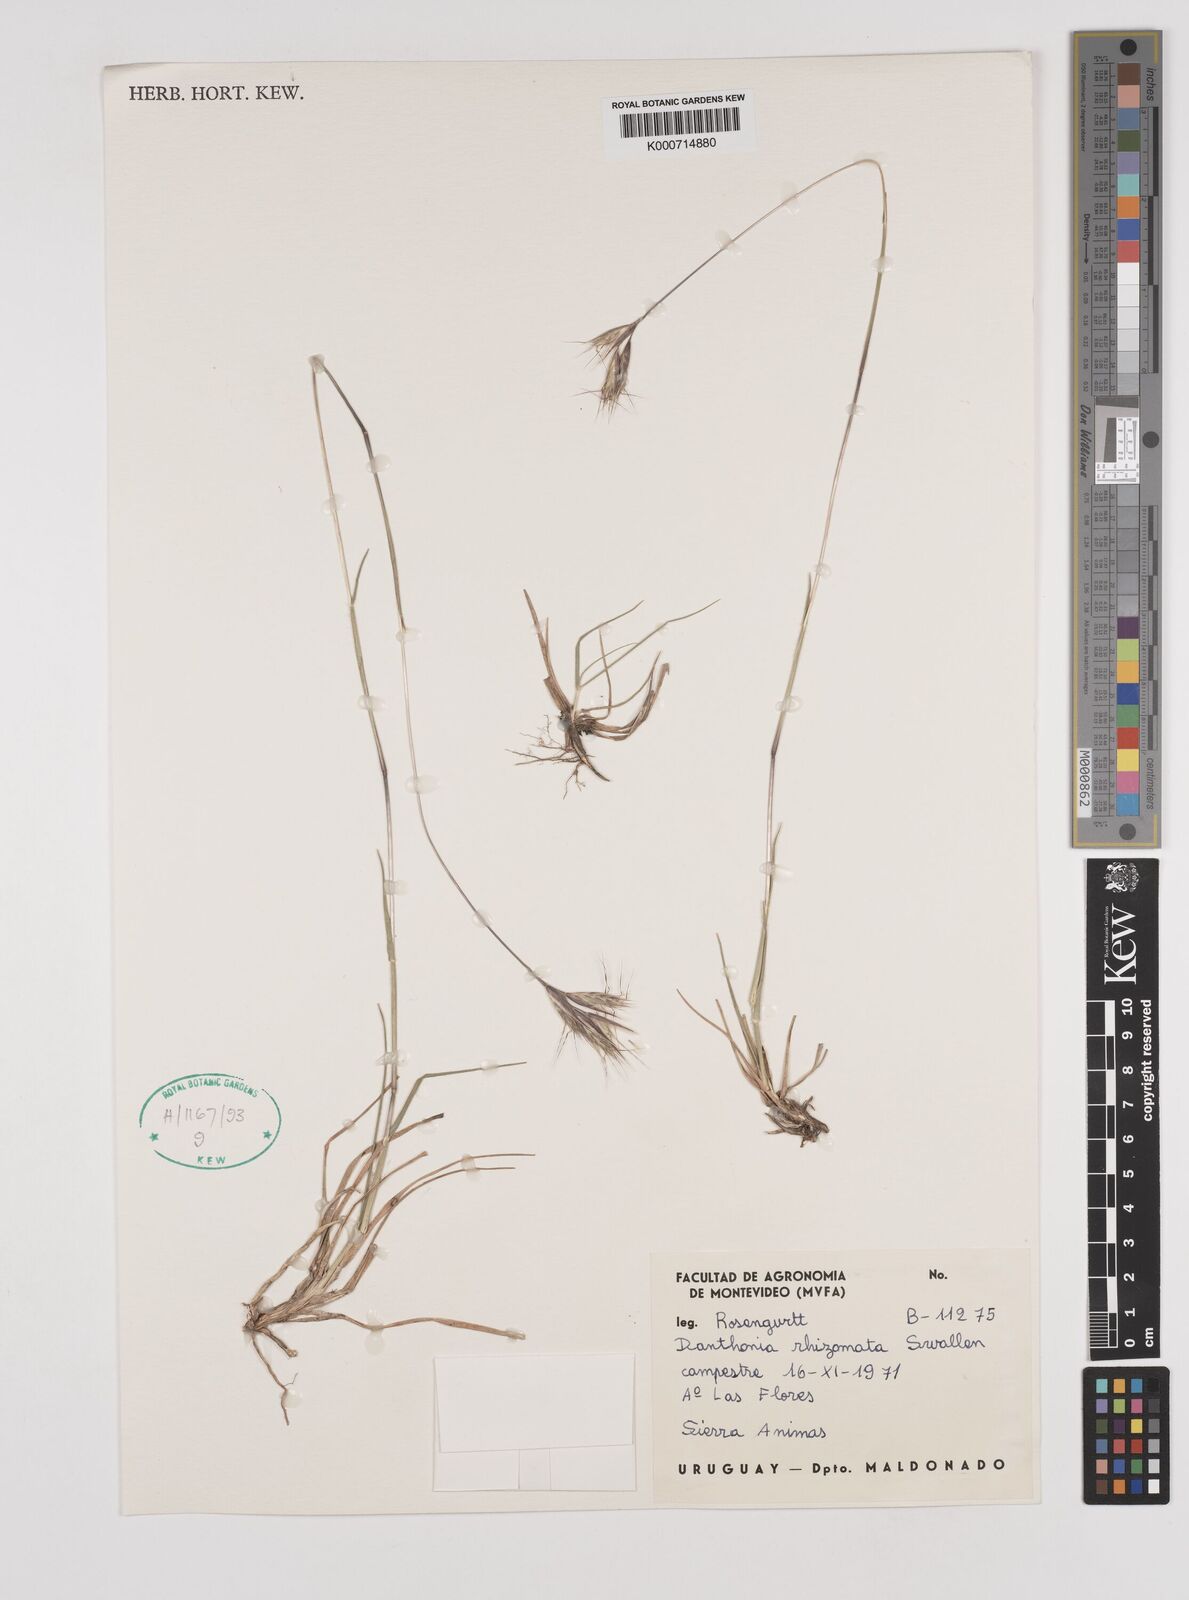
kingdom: Plantae
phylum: Tracheophyta
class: Liliopsida
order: Poales
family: Poaceae
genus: Rytidosperma
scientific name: Rytidosperma pictum
